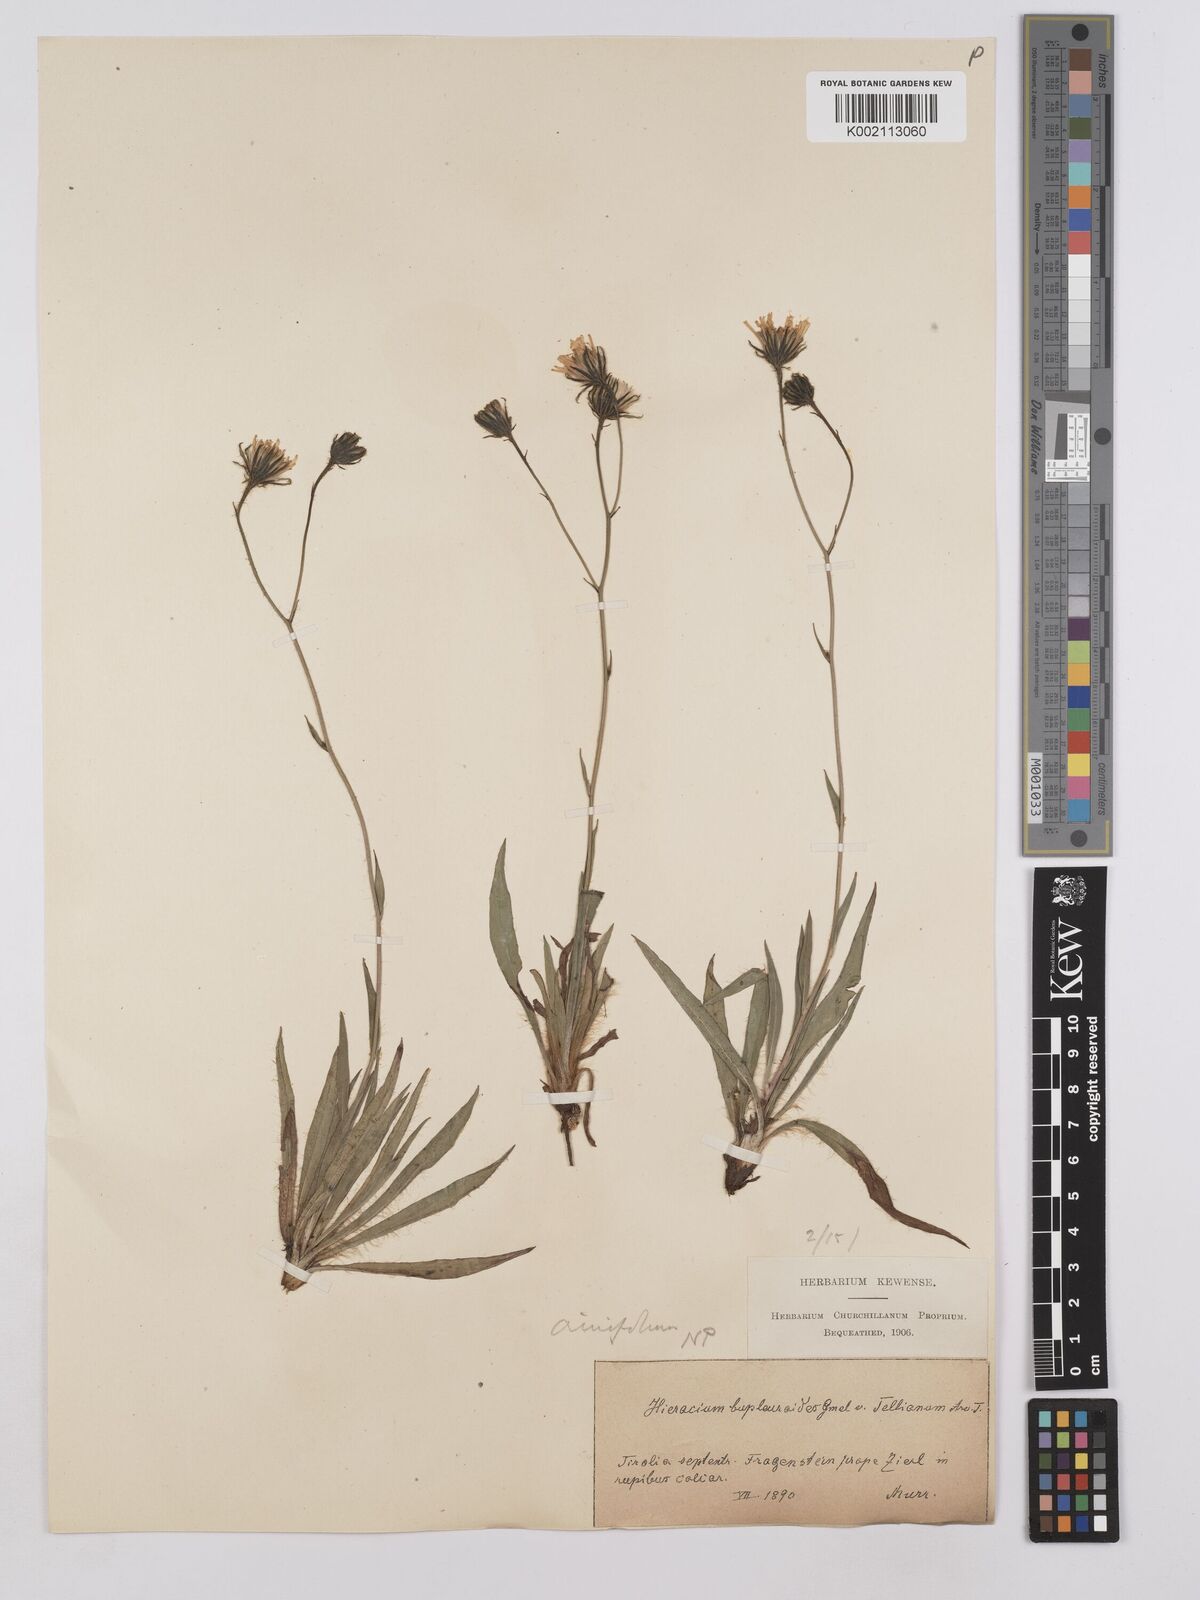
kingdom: Plantae
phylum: Tracheophyta
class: Magnoliopsida
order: Asterales
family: Asteraceae
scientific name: Asteraceae
